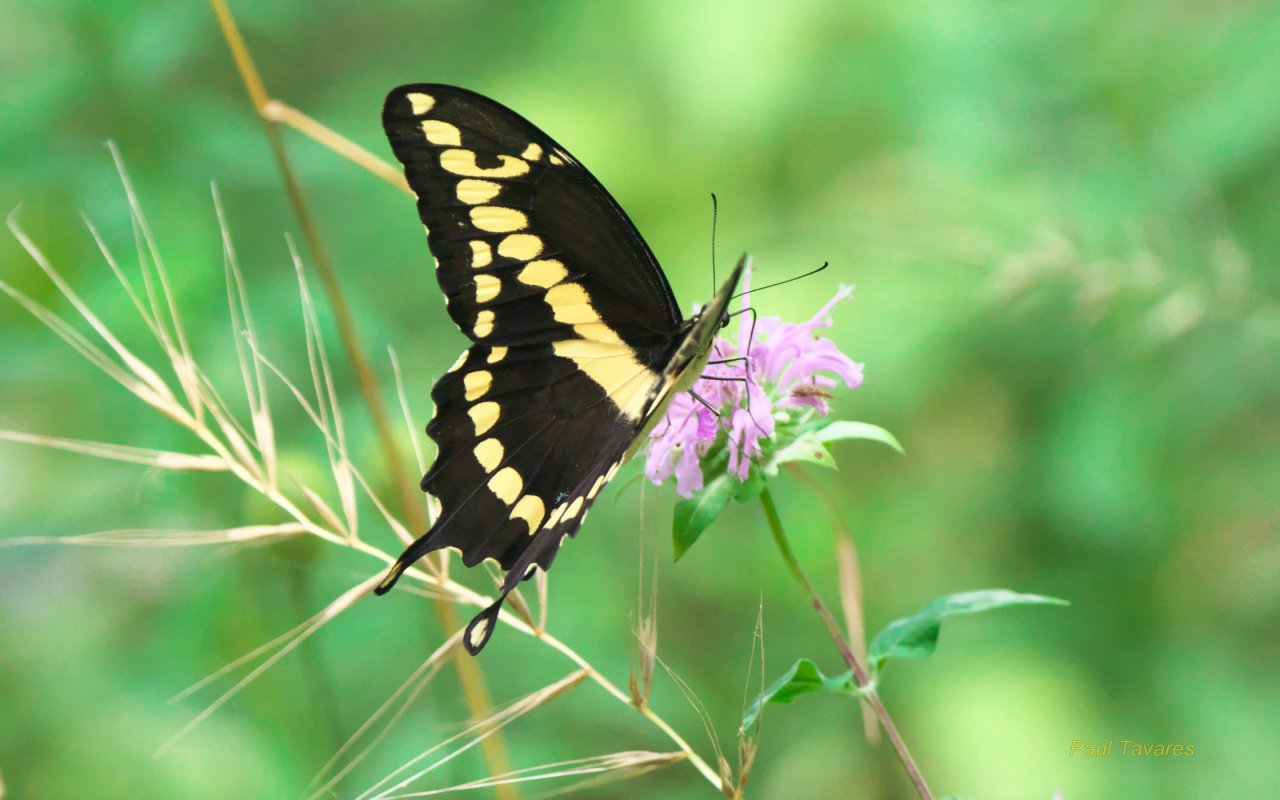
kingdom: Animalia
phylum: Arthropoda
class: Insecta
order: Lepidoptera
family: Papilionidae
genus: Papilio
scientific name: Papilio cresphontes
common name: Eastern Giant Swallowtail
